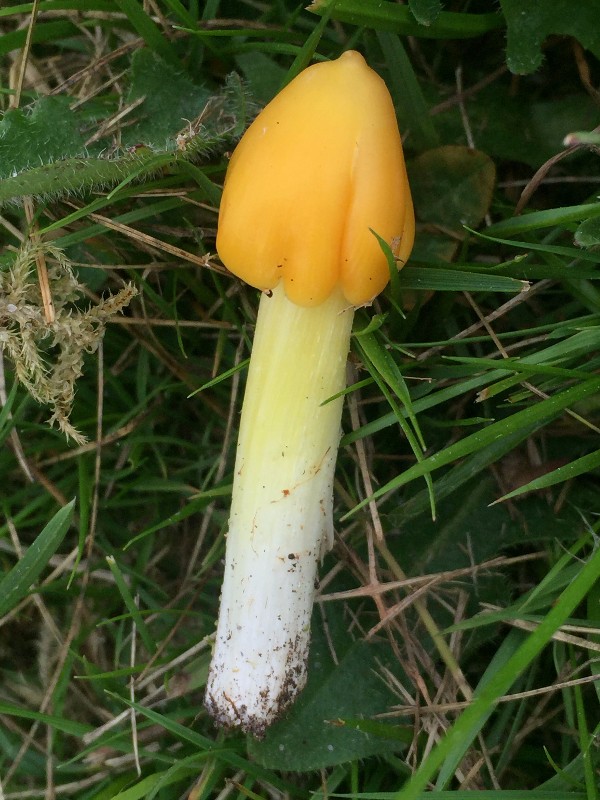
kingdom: Fungi
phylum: Basidiomycota
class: Agaricomycetes
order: Agaricales
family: Hygrophoraceae
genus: Hygrocybe
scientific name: Hygrocybe
